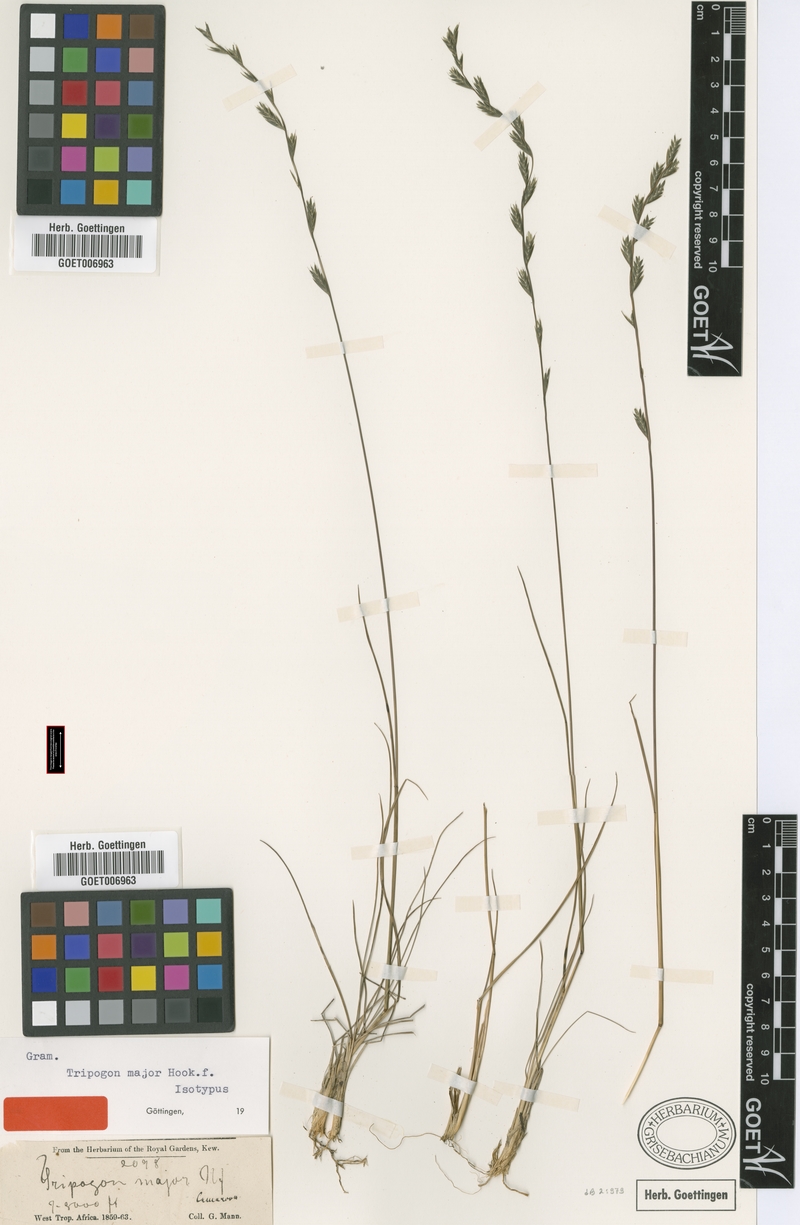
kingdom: Plantae
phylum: Tracheophyta
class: Liliopsida
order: Poales
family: Poaceae
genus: Tripogon
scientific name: Tripogon major
